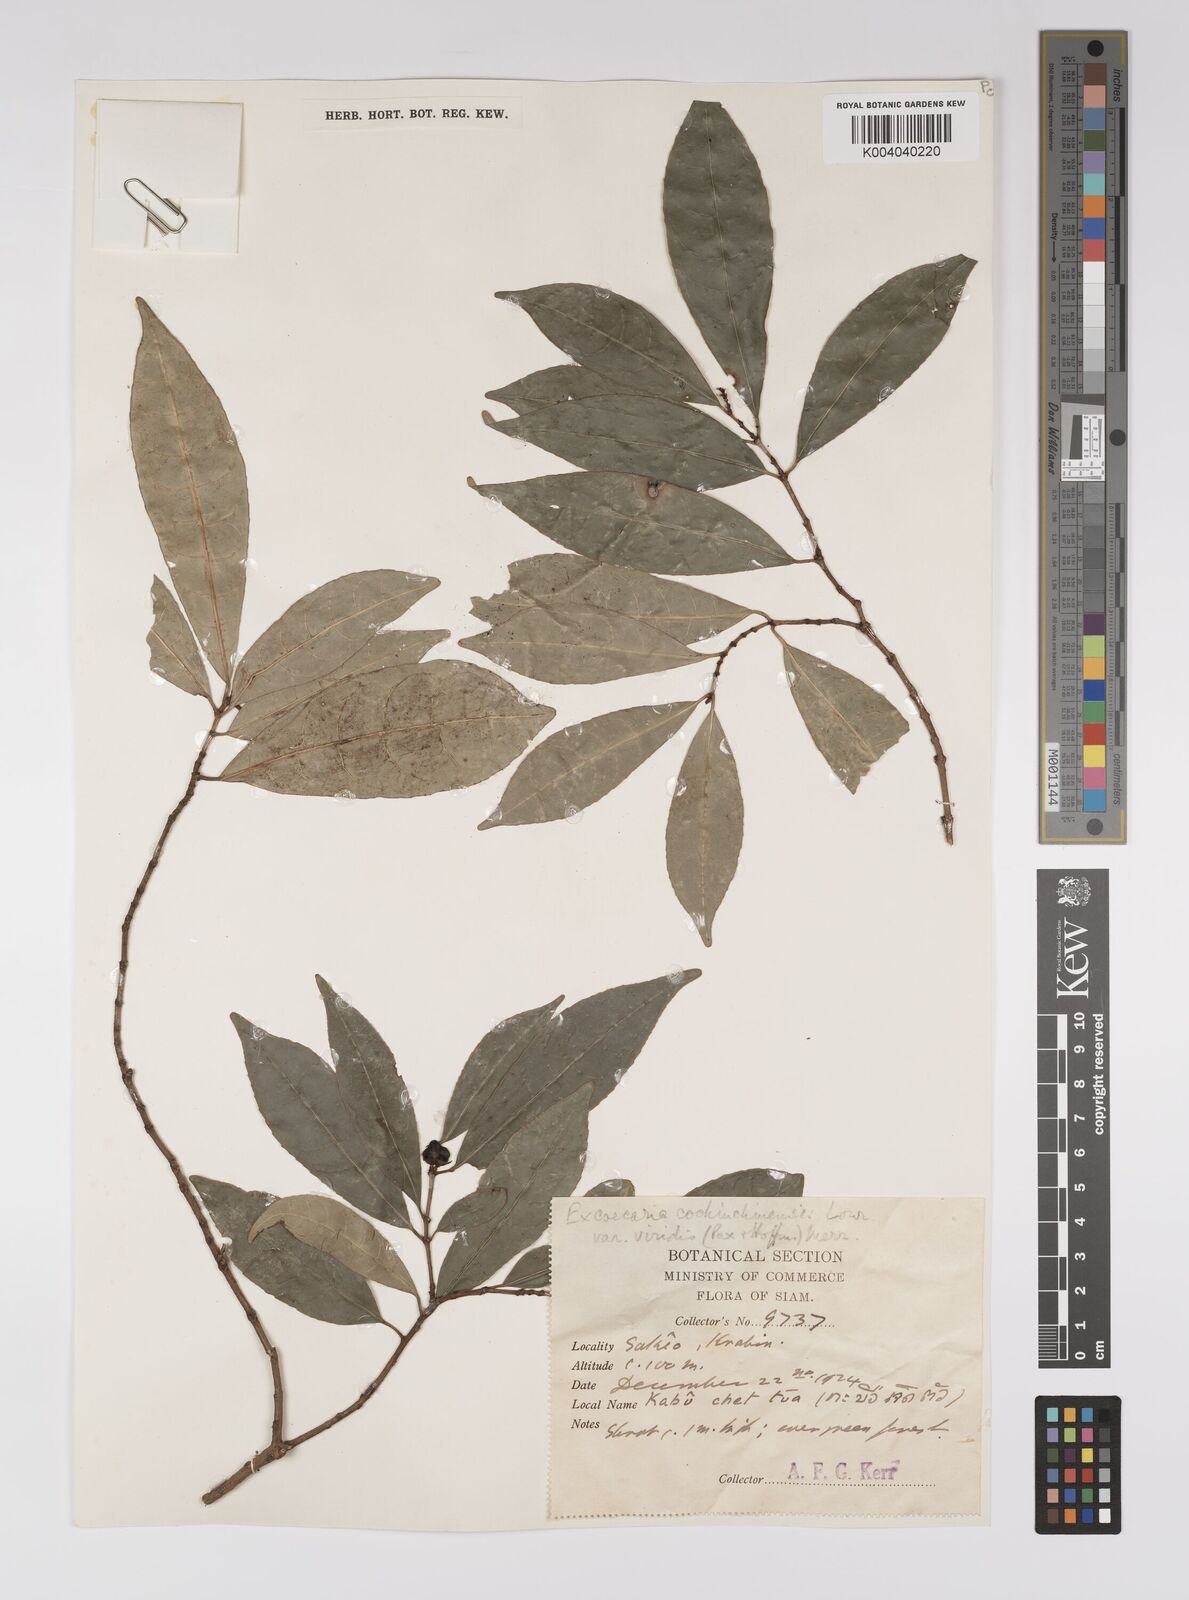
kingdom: Plantae
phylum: Tracheophyta
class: Magnoliopsida
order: Malpighiales
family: Euphorbiaceae
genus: Excoecaria
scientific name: Excoecaria cochinchinensis
